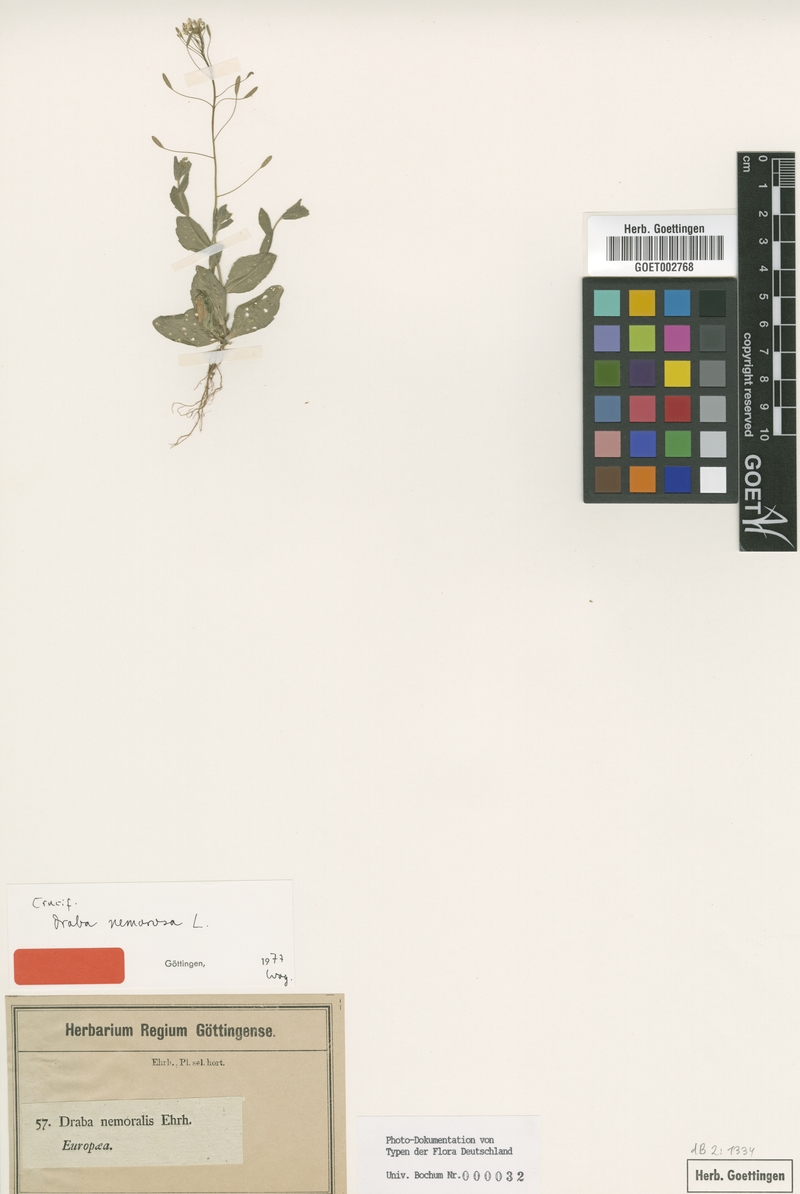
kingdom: Plantae
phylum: Tracheophyta
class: Magnoliopsida
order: Brassicales
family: Brassicaceae
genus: Draba
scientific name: Draba nemorosa
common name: Wood whitlow-grass
